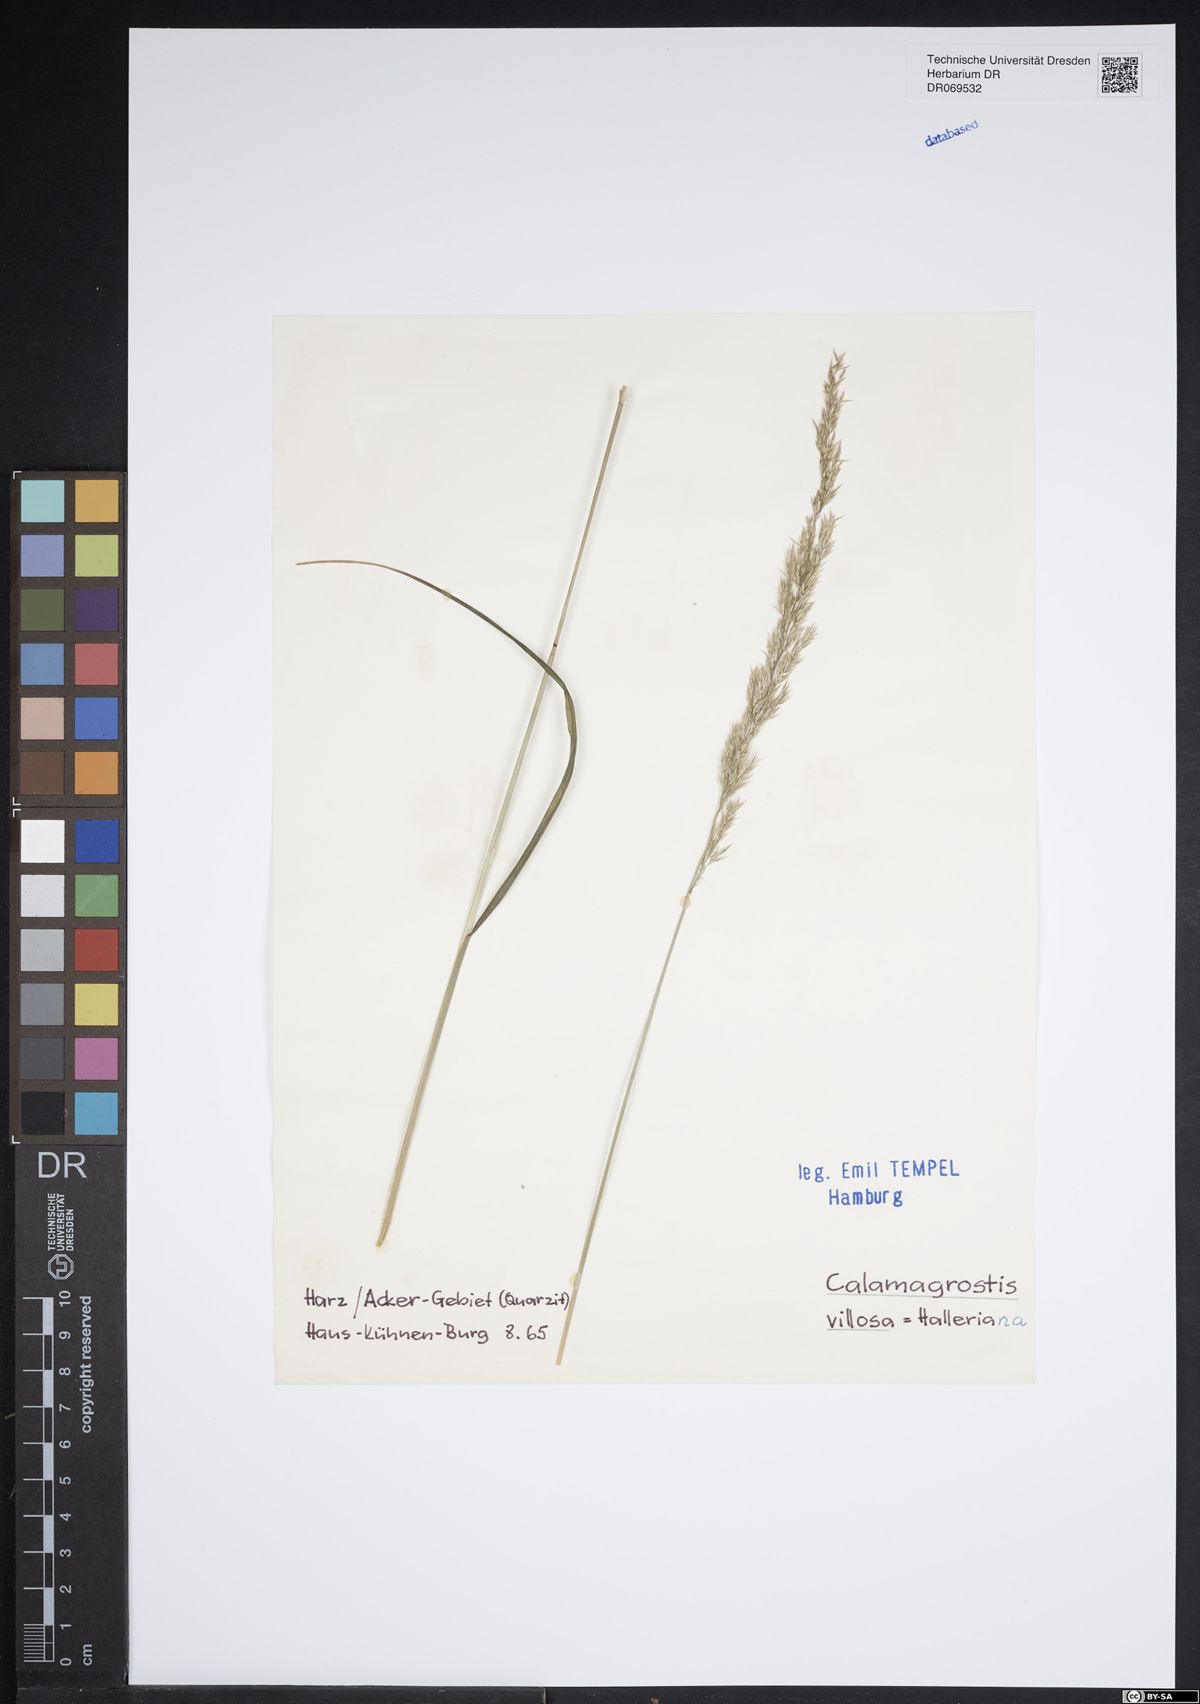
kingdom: Plantae
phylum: Tracheophyta
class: Liliopsida
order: Poales
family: Poaceae
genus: Calamagrostis
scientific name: Calamagrostis villosa
